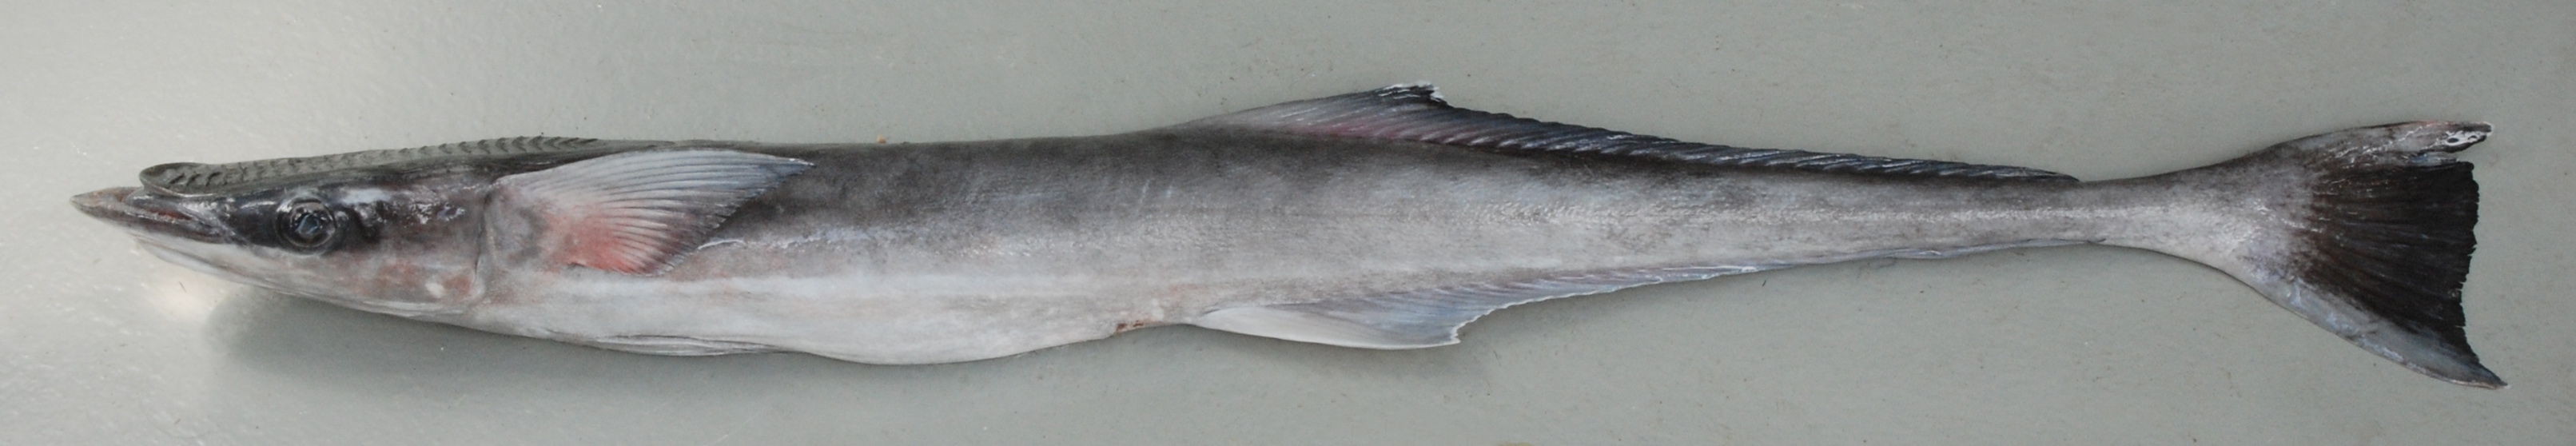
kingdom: Animalia
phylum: Chordata
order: Perciformes
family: Echeneidae
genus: Echeneis
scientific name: Echeneis naucrates
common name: Sharksucker
